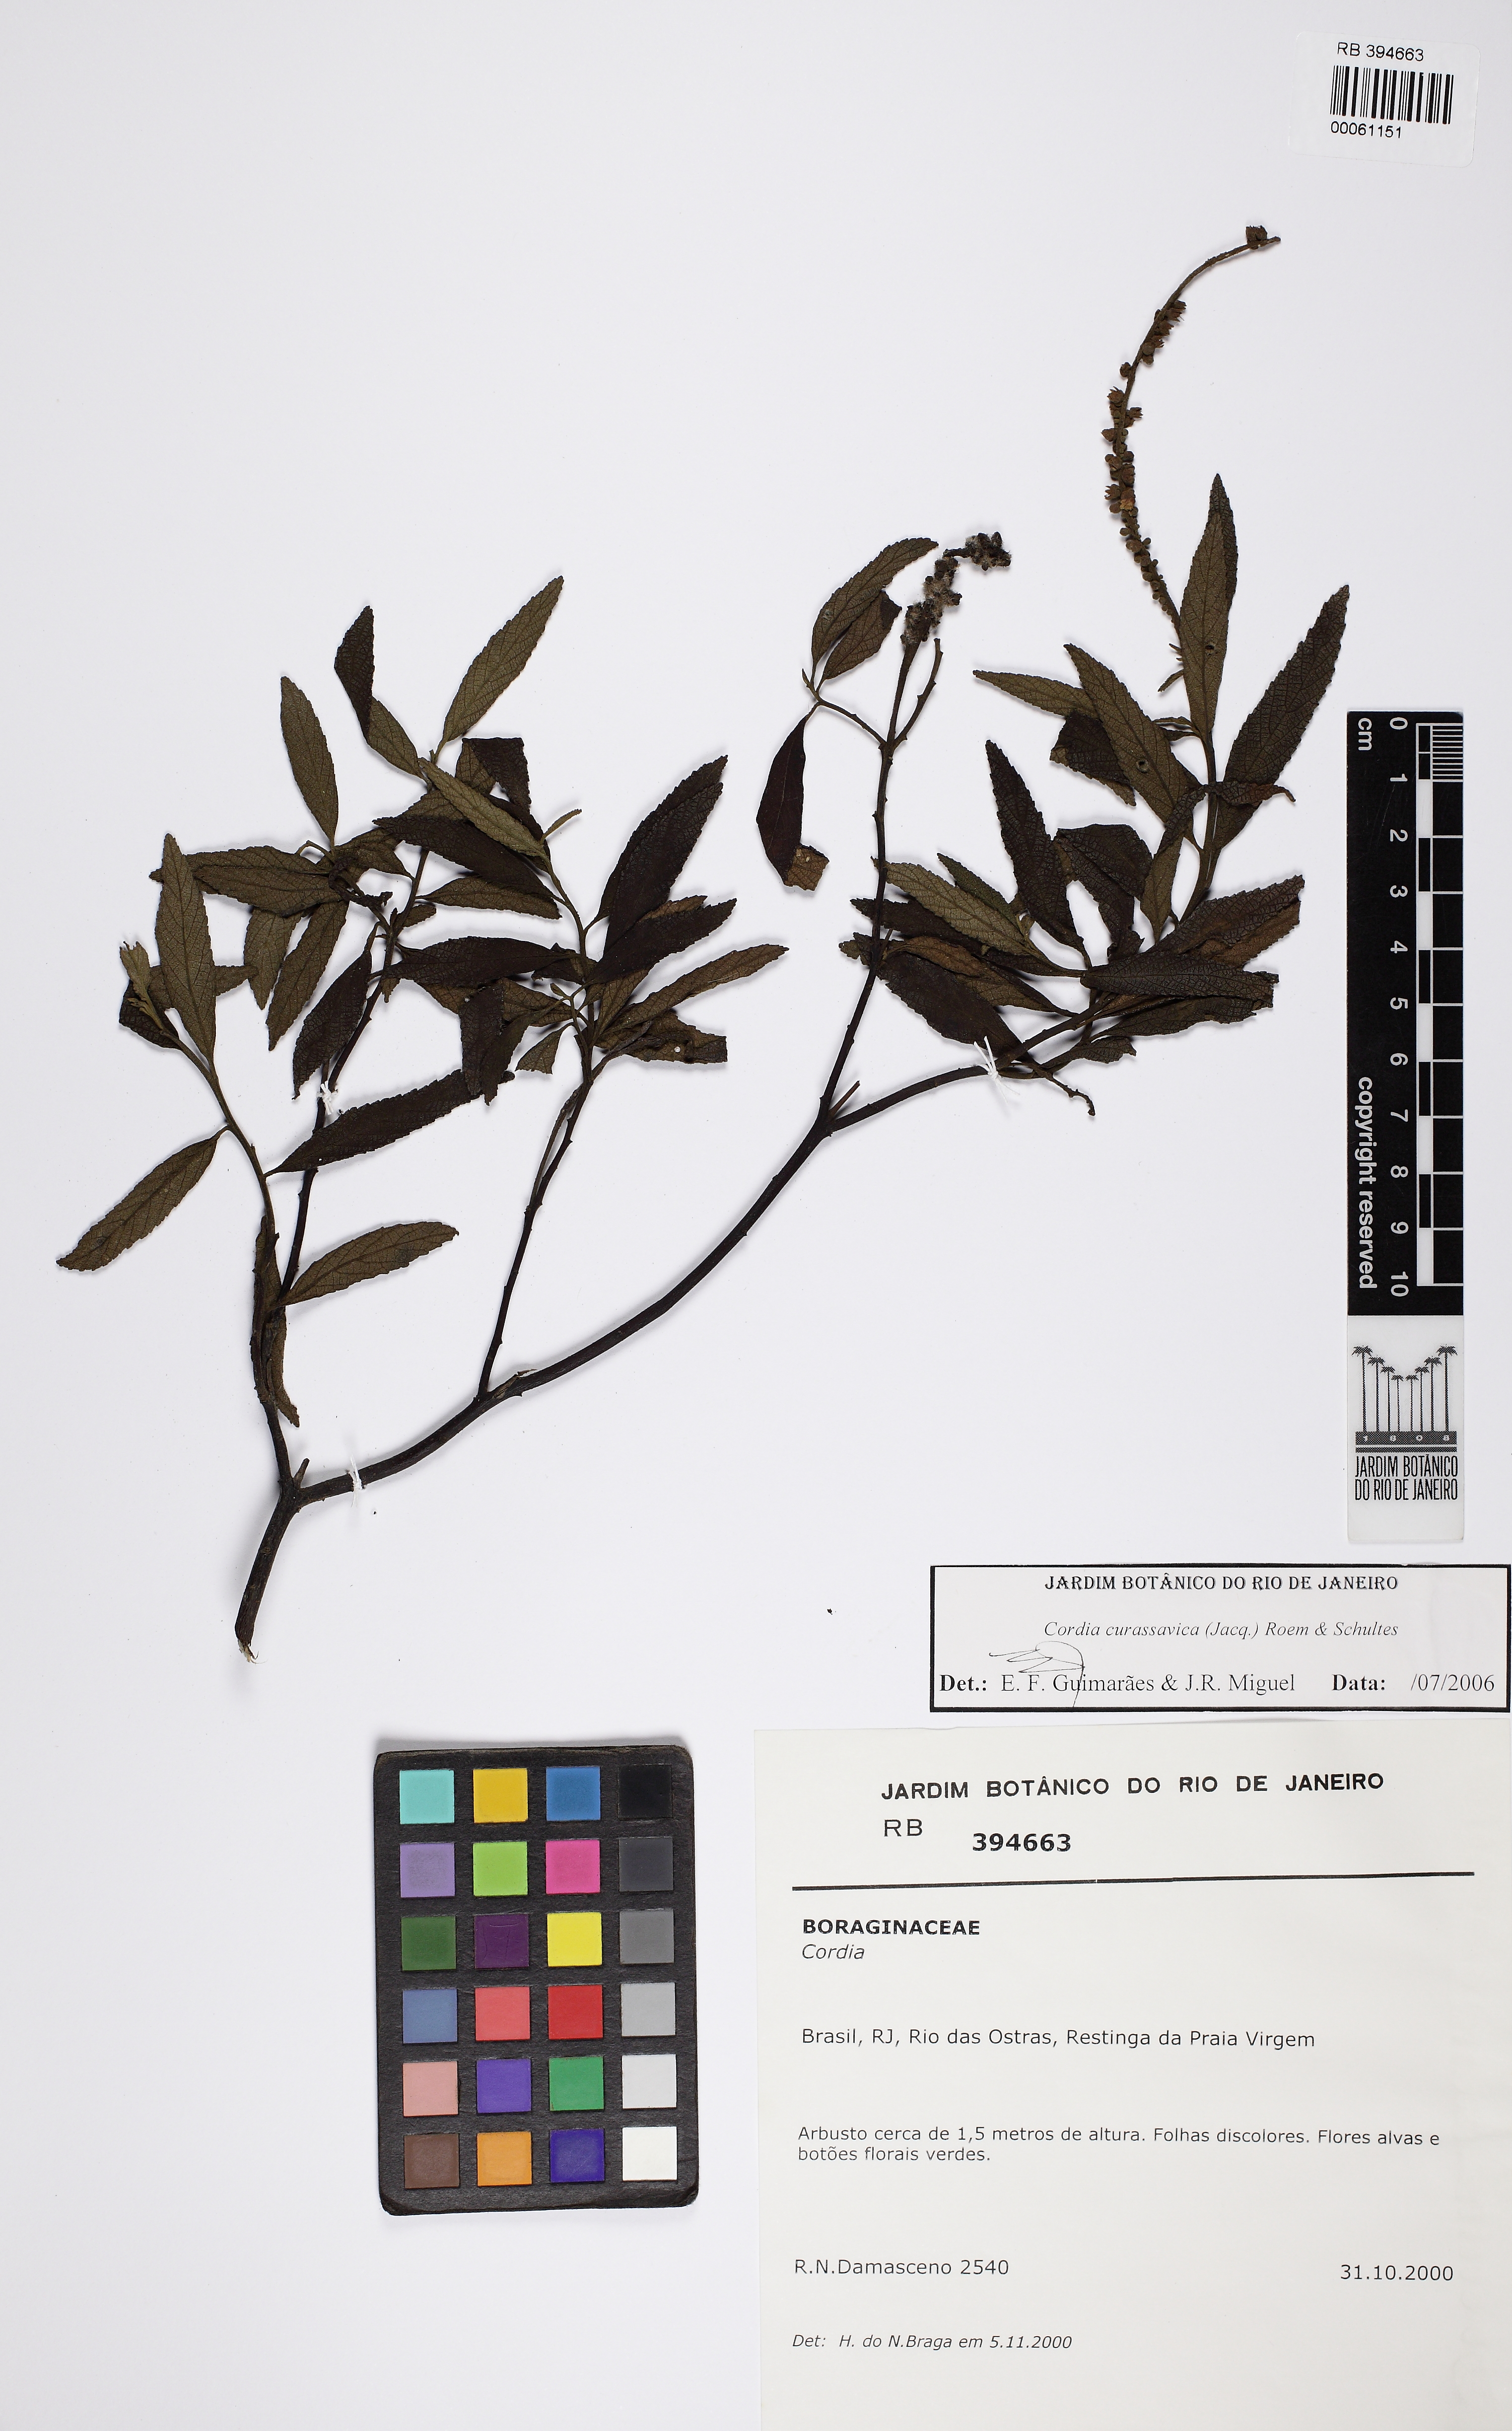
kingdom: Plantae
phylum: Tracheophyta
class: Magnoliopsida
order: Boraginales
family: Cordiaceae
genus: Varronia
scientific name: Varronia curassavica
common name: Black sage
